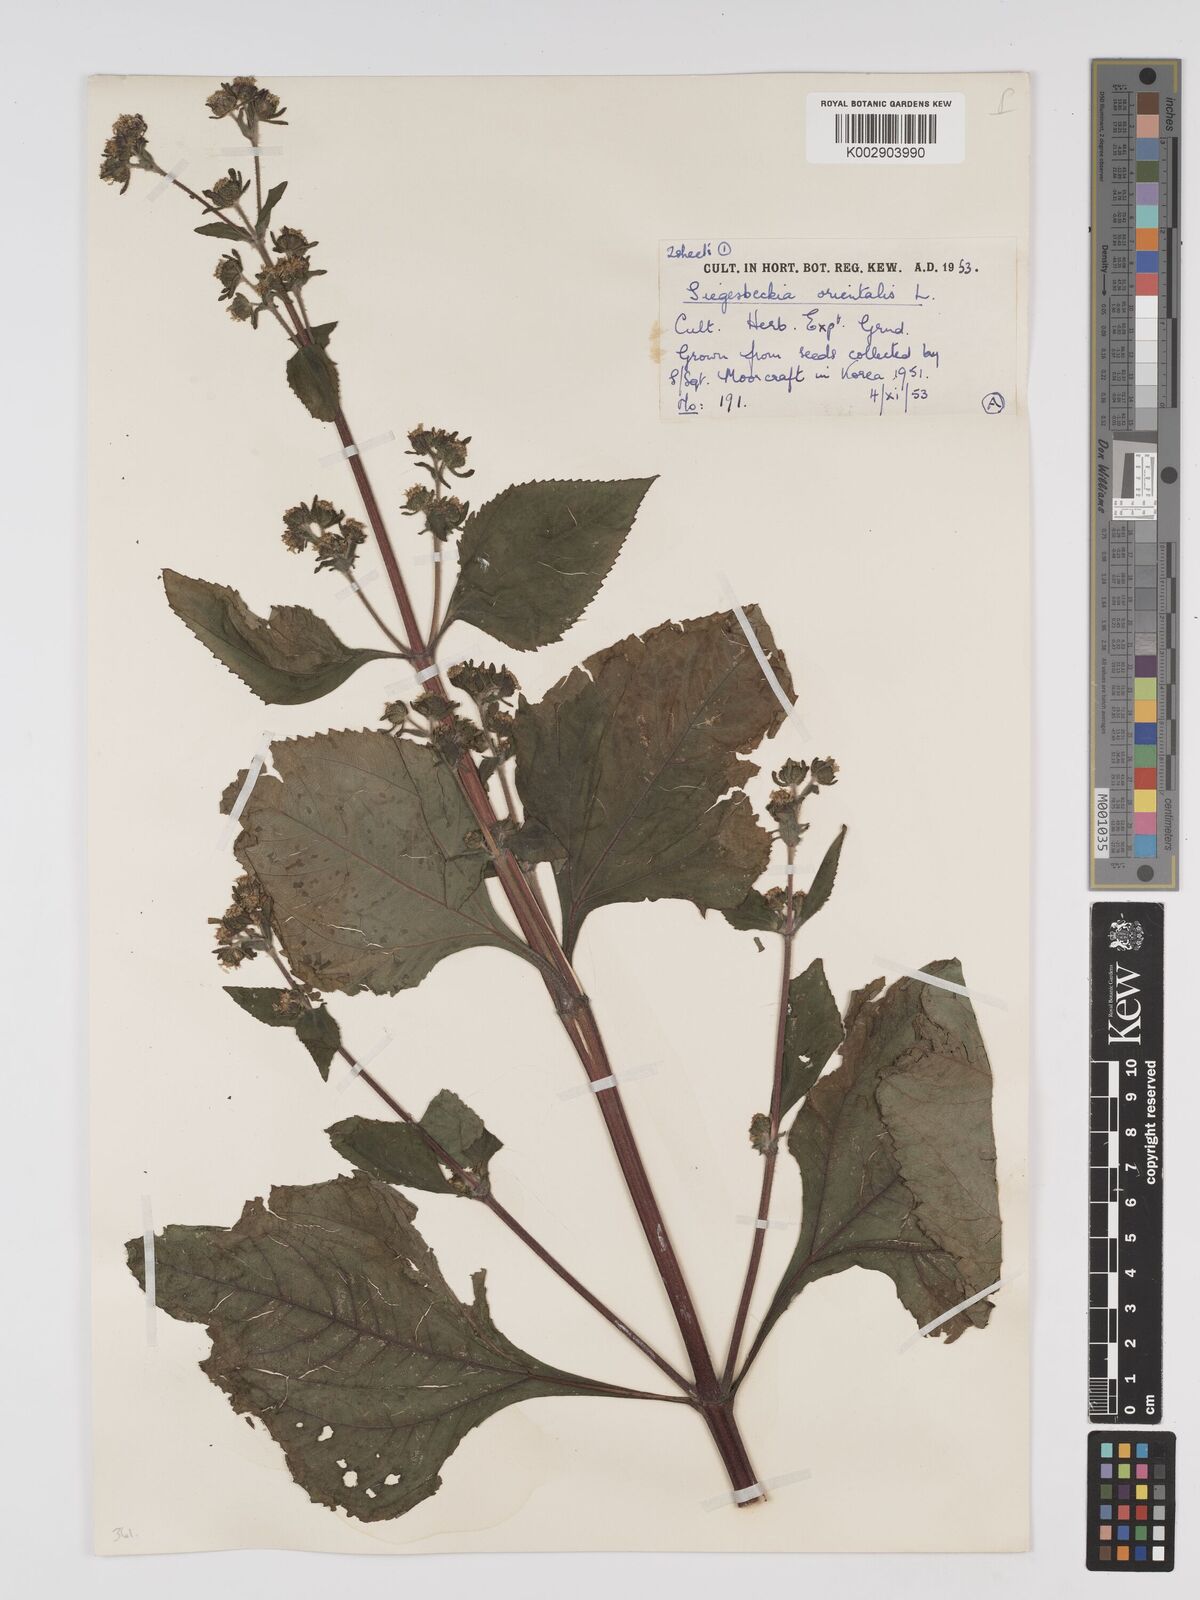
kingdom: Plantae
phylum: Tracheophyta
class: Magnoliopsida
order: Asterales
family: Asteraceae
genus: Sigesbeckia
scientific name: Sigesbeckia orientalis
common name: Eastern st paul's-wort
